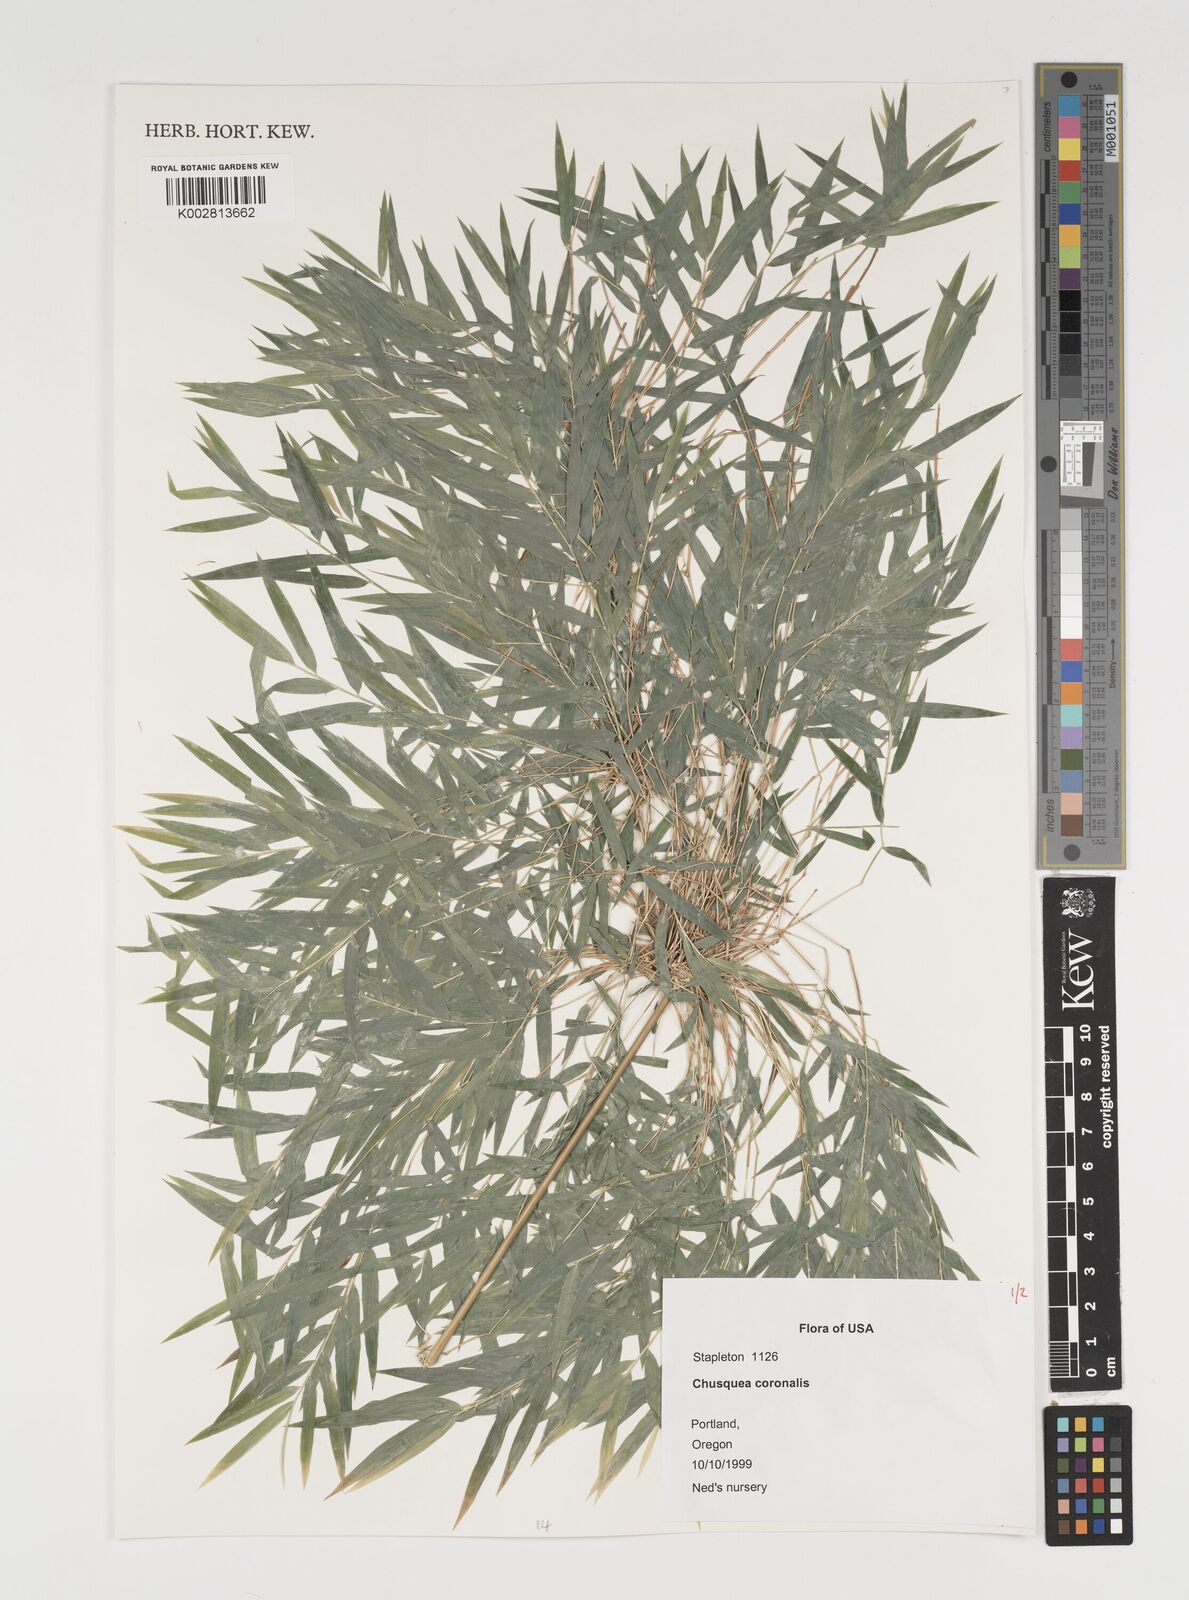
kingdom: Plantae
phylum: Tracheophyta
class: Liliopsida
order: Poales
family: Poaceae
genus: Chusquea
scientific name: Chusquea coronalis
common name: Machris bamboo
